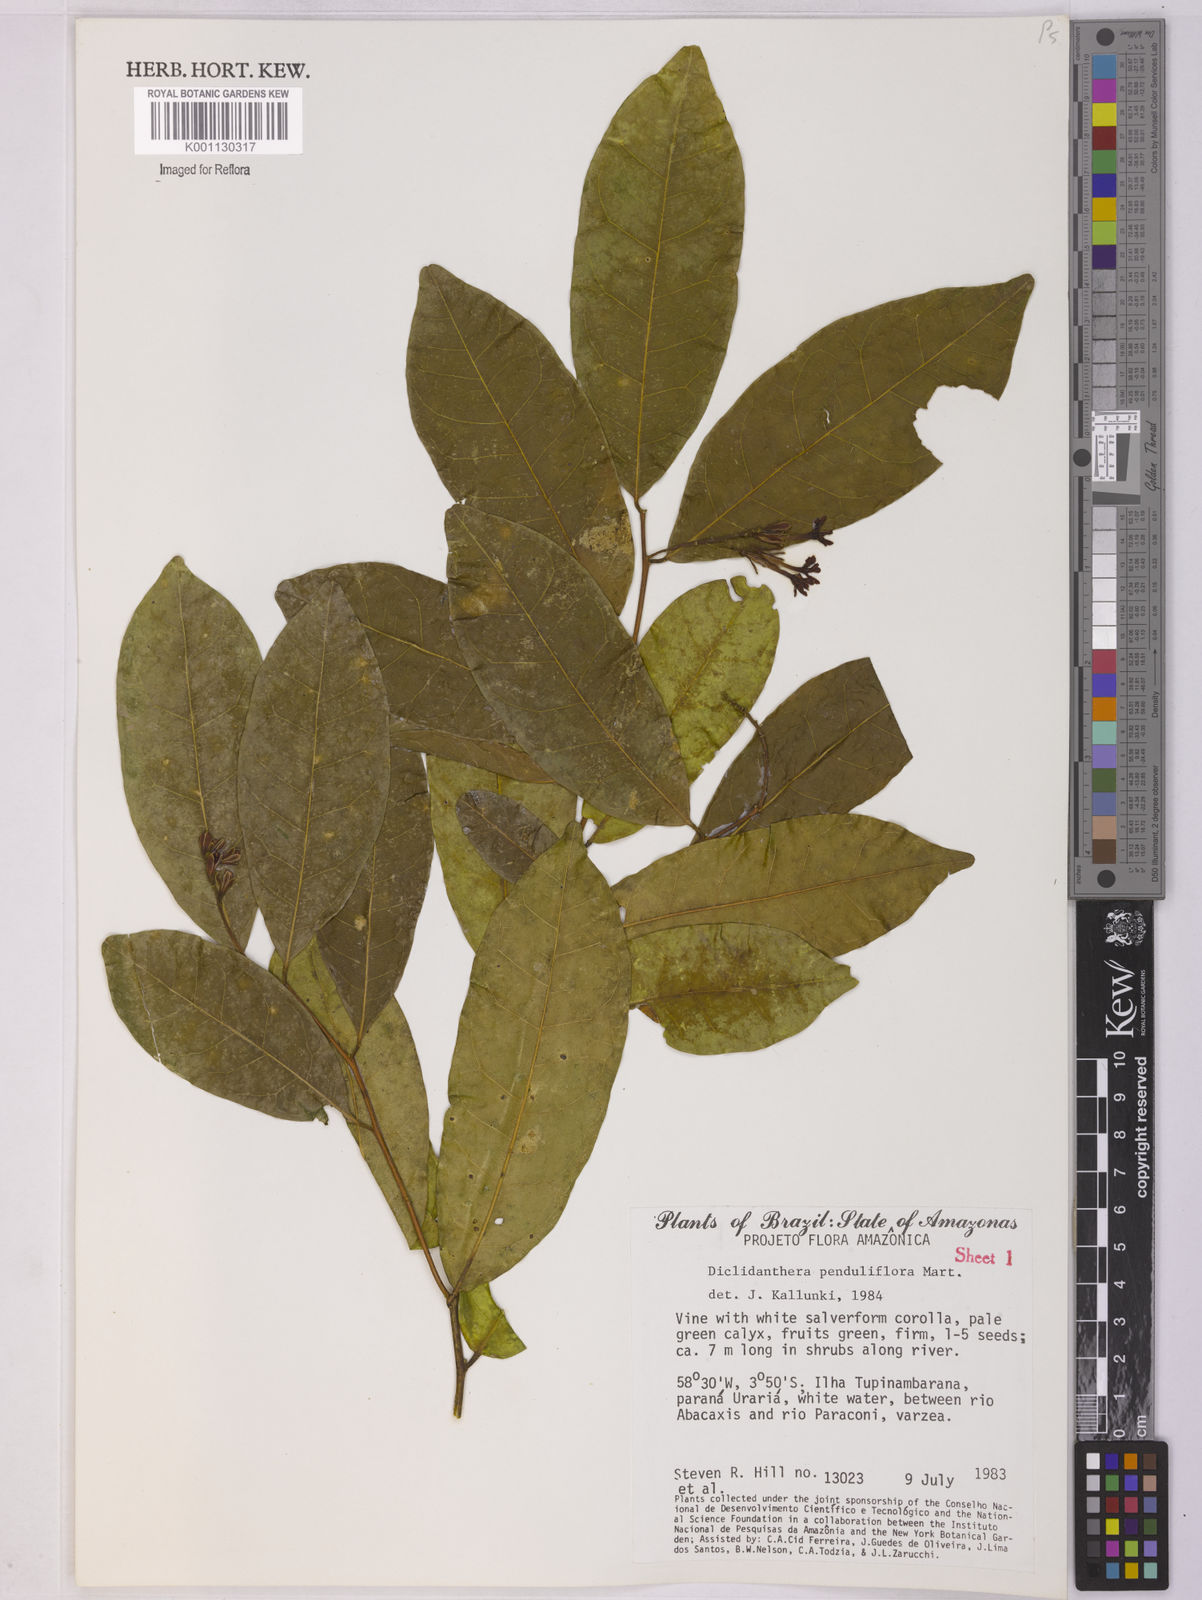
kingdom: Plantae
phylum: Tracheophyta
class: Magnoliopsida
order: Fabales
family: Polygalaceae
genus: Diclidanthera
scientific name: Diclidanthera penduliflora
